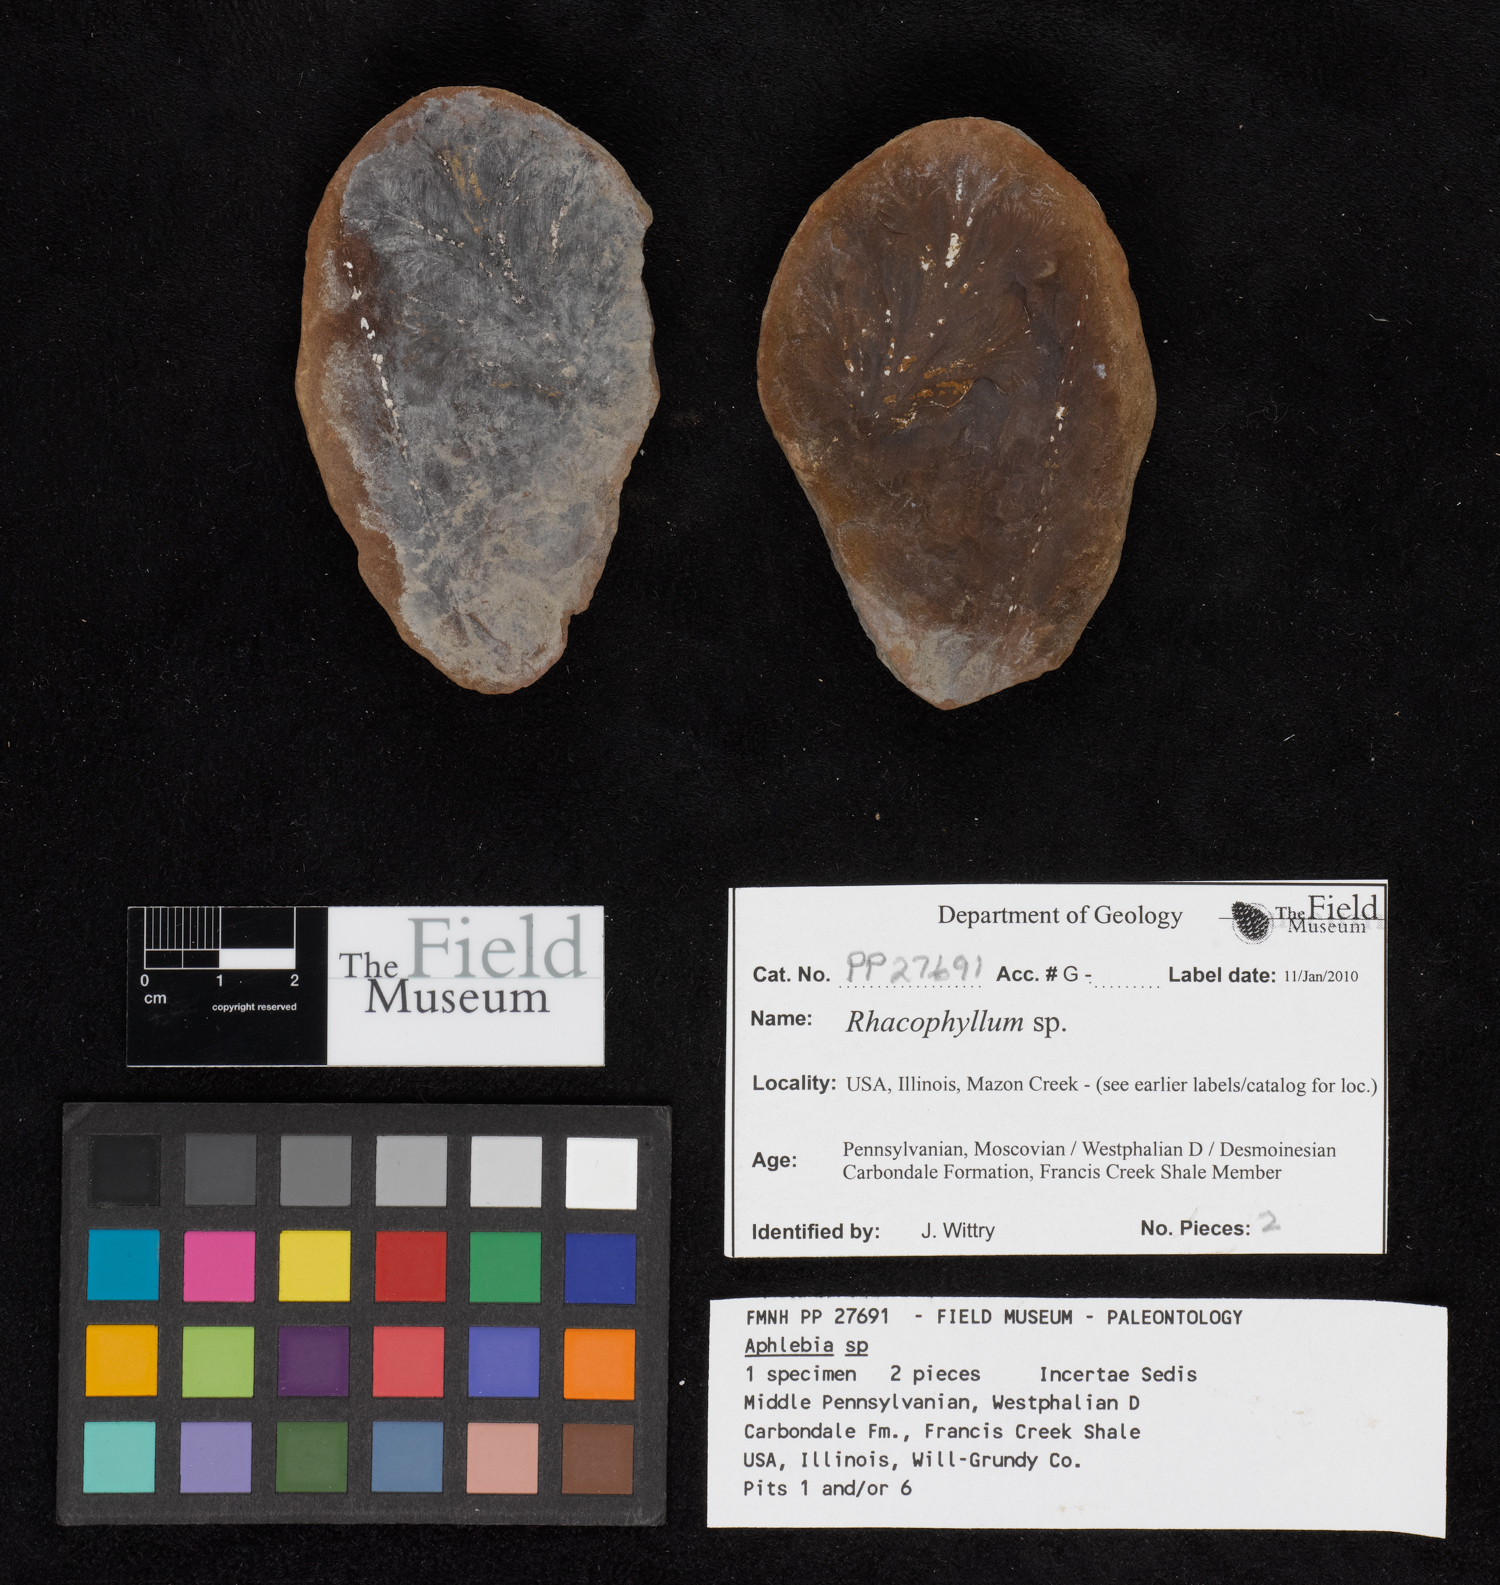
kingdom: Plantae
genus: Rhacophyllum
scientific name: Rhacophyllum
